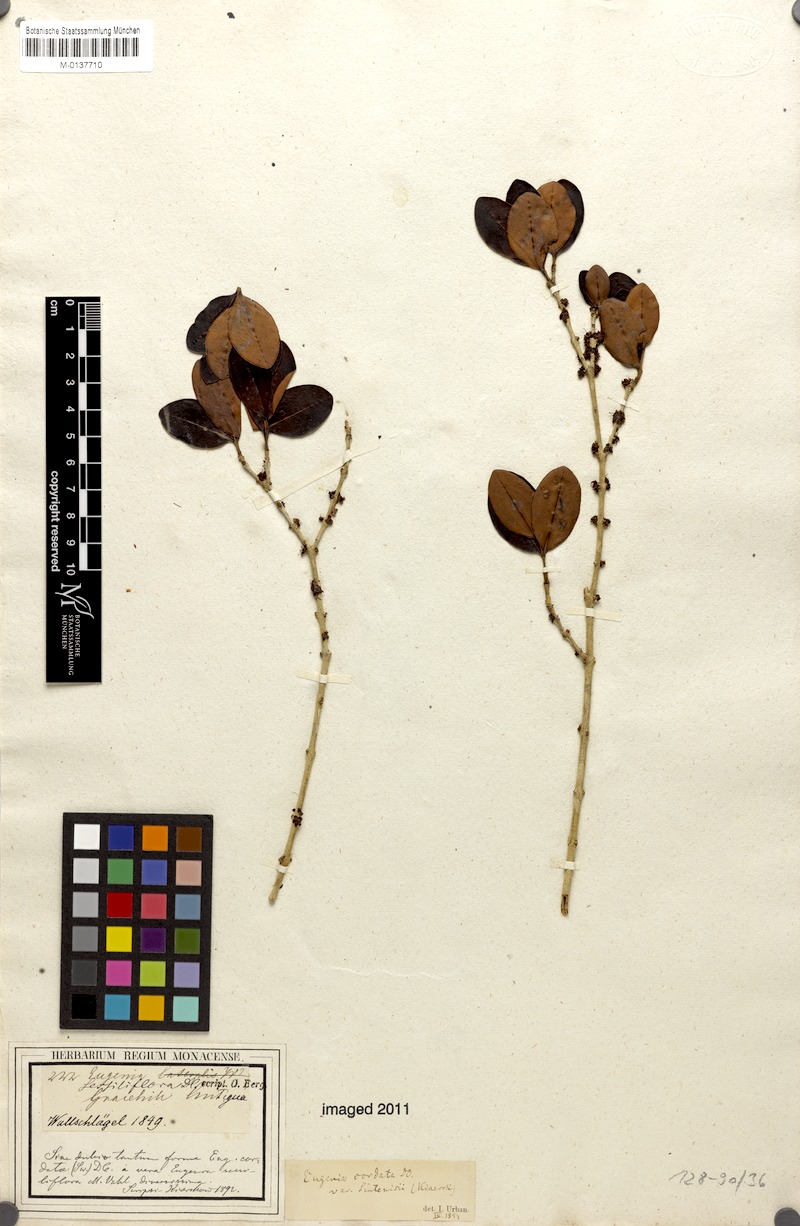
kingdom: Plantae
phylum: Tracheophyta
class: Magnoliopsida
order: Myrtales
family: Myrtaceae
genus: Eugenia
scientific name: Eugenia cordata
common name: Lathberry
